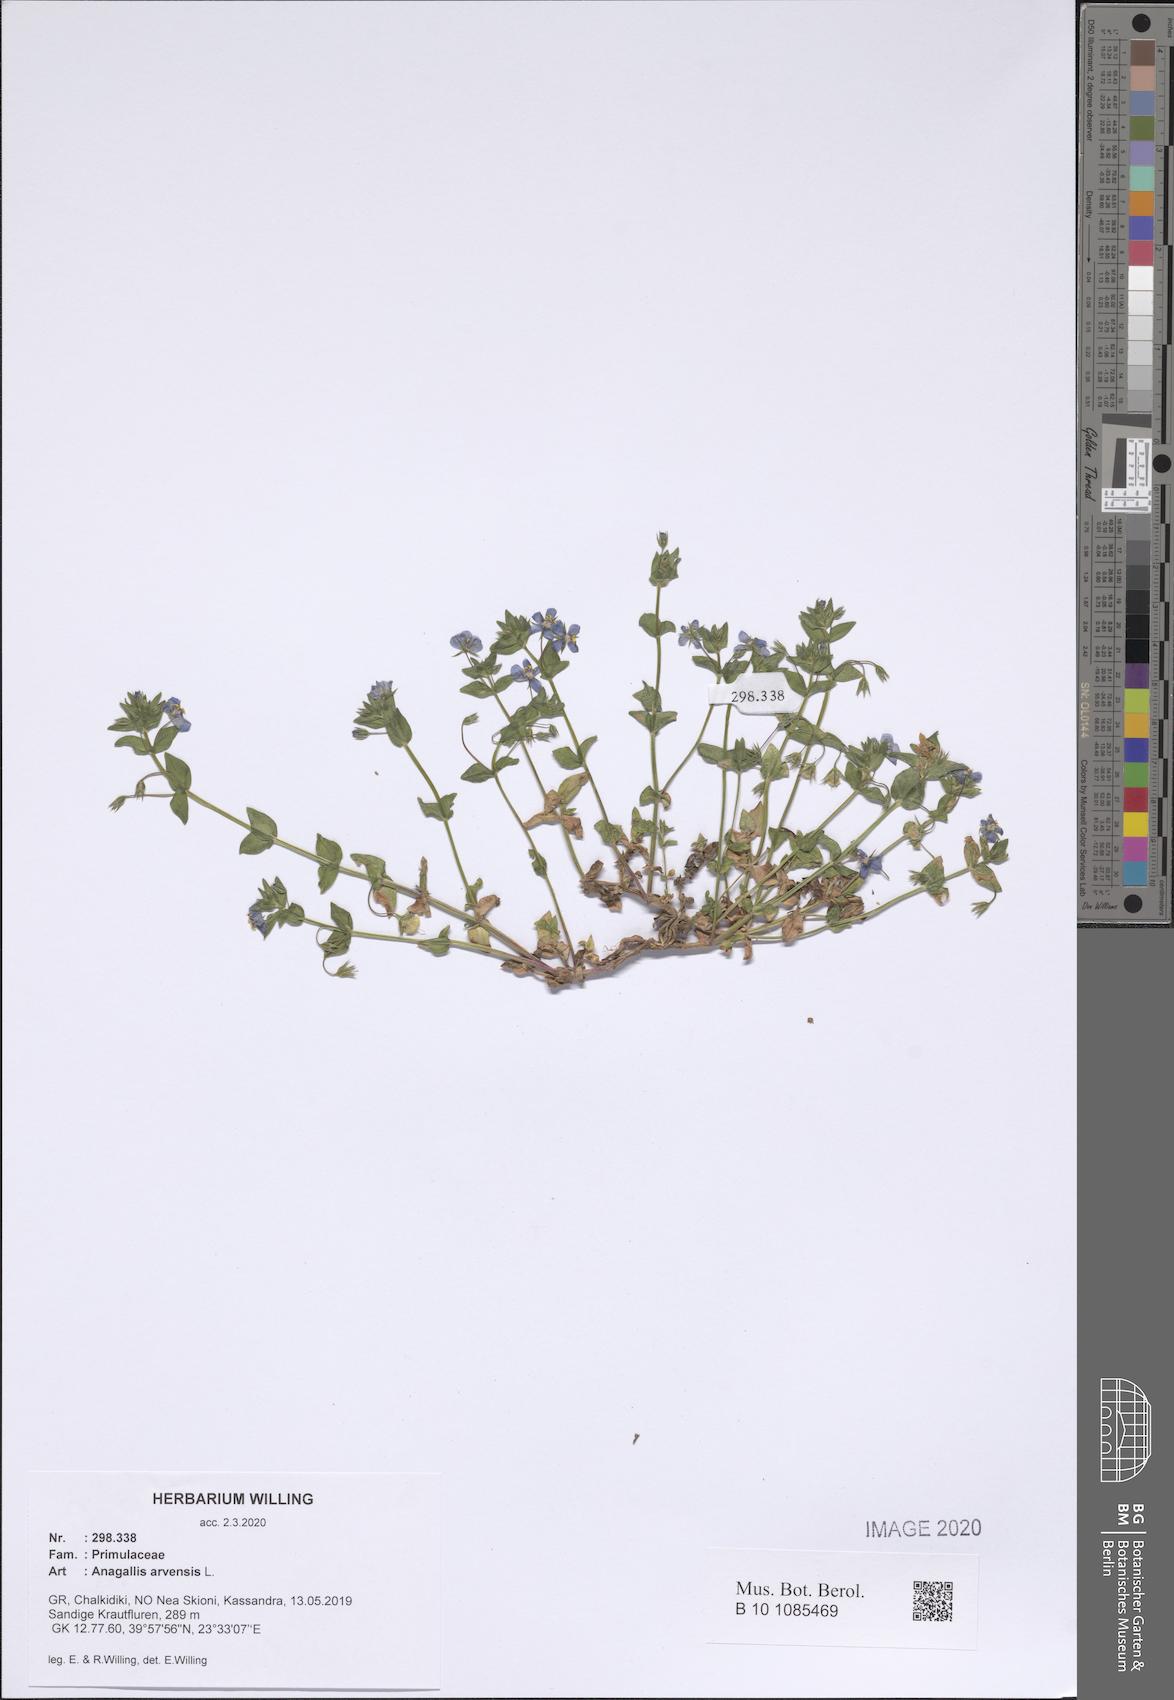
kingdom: Plantae
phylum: Tracheophyta
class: Magnoliopsida
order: Ericales
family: Primulaceae
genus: Lysimachia
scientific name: Lysimachia arvensis
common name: Scarlet pimpernel
